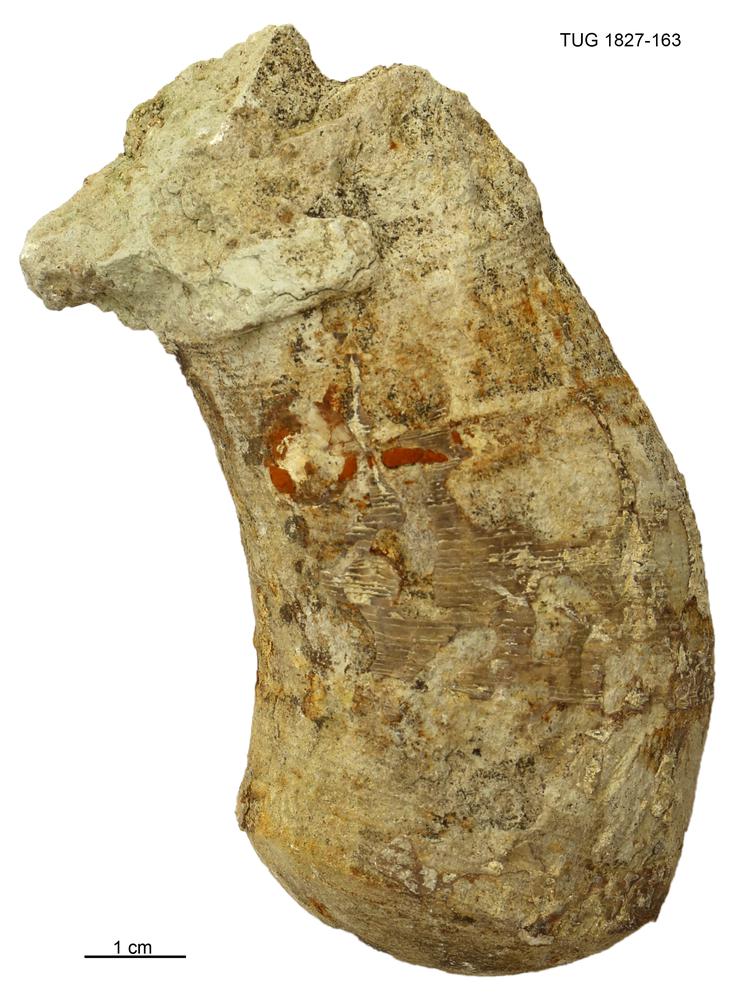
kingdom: Animalia
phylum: Mollusca
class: Cephalopoda
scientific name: Cephalopoda
